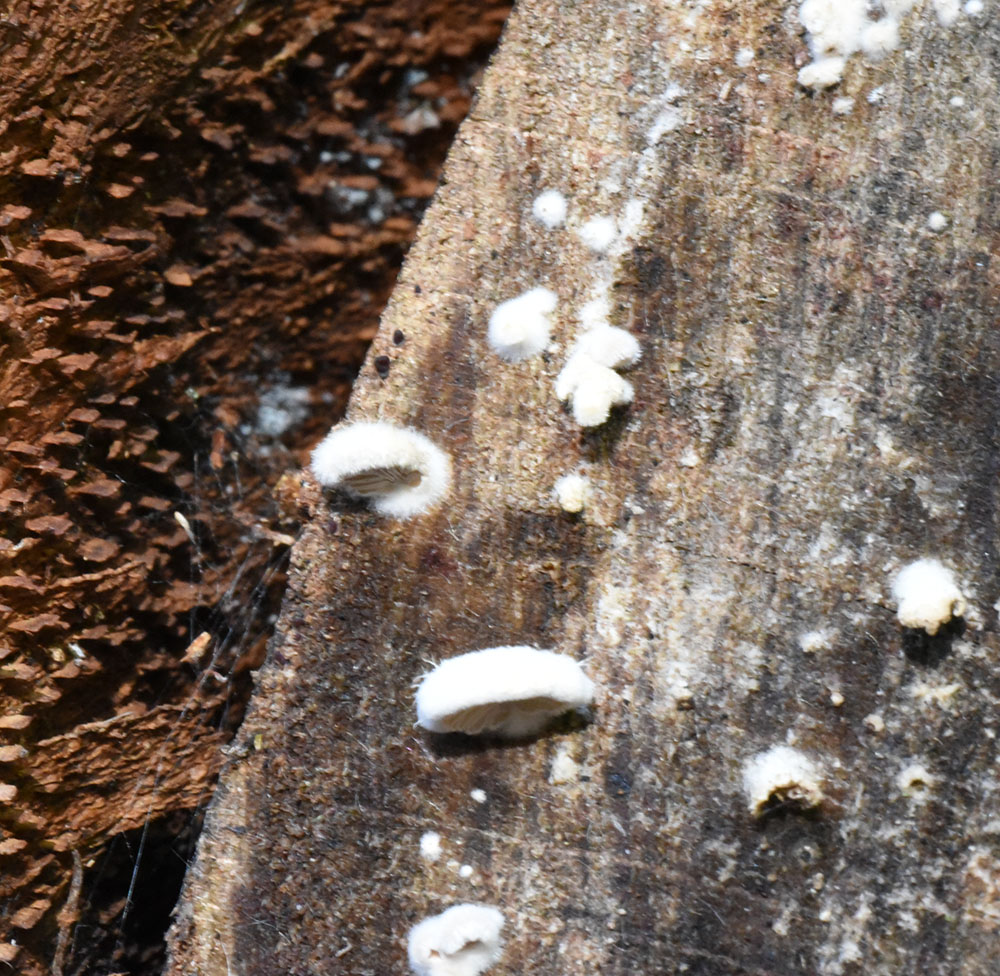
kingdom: Fungi
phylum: Basidiomycota
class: Agaricomycetes
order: Polyporales
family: Dacryobolaceae
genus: Postia
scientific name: Postia tephroleuca
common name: Greyling bracket
